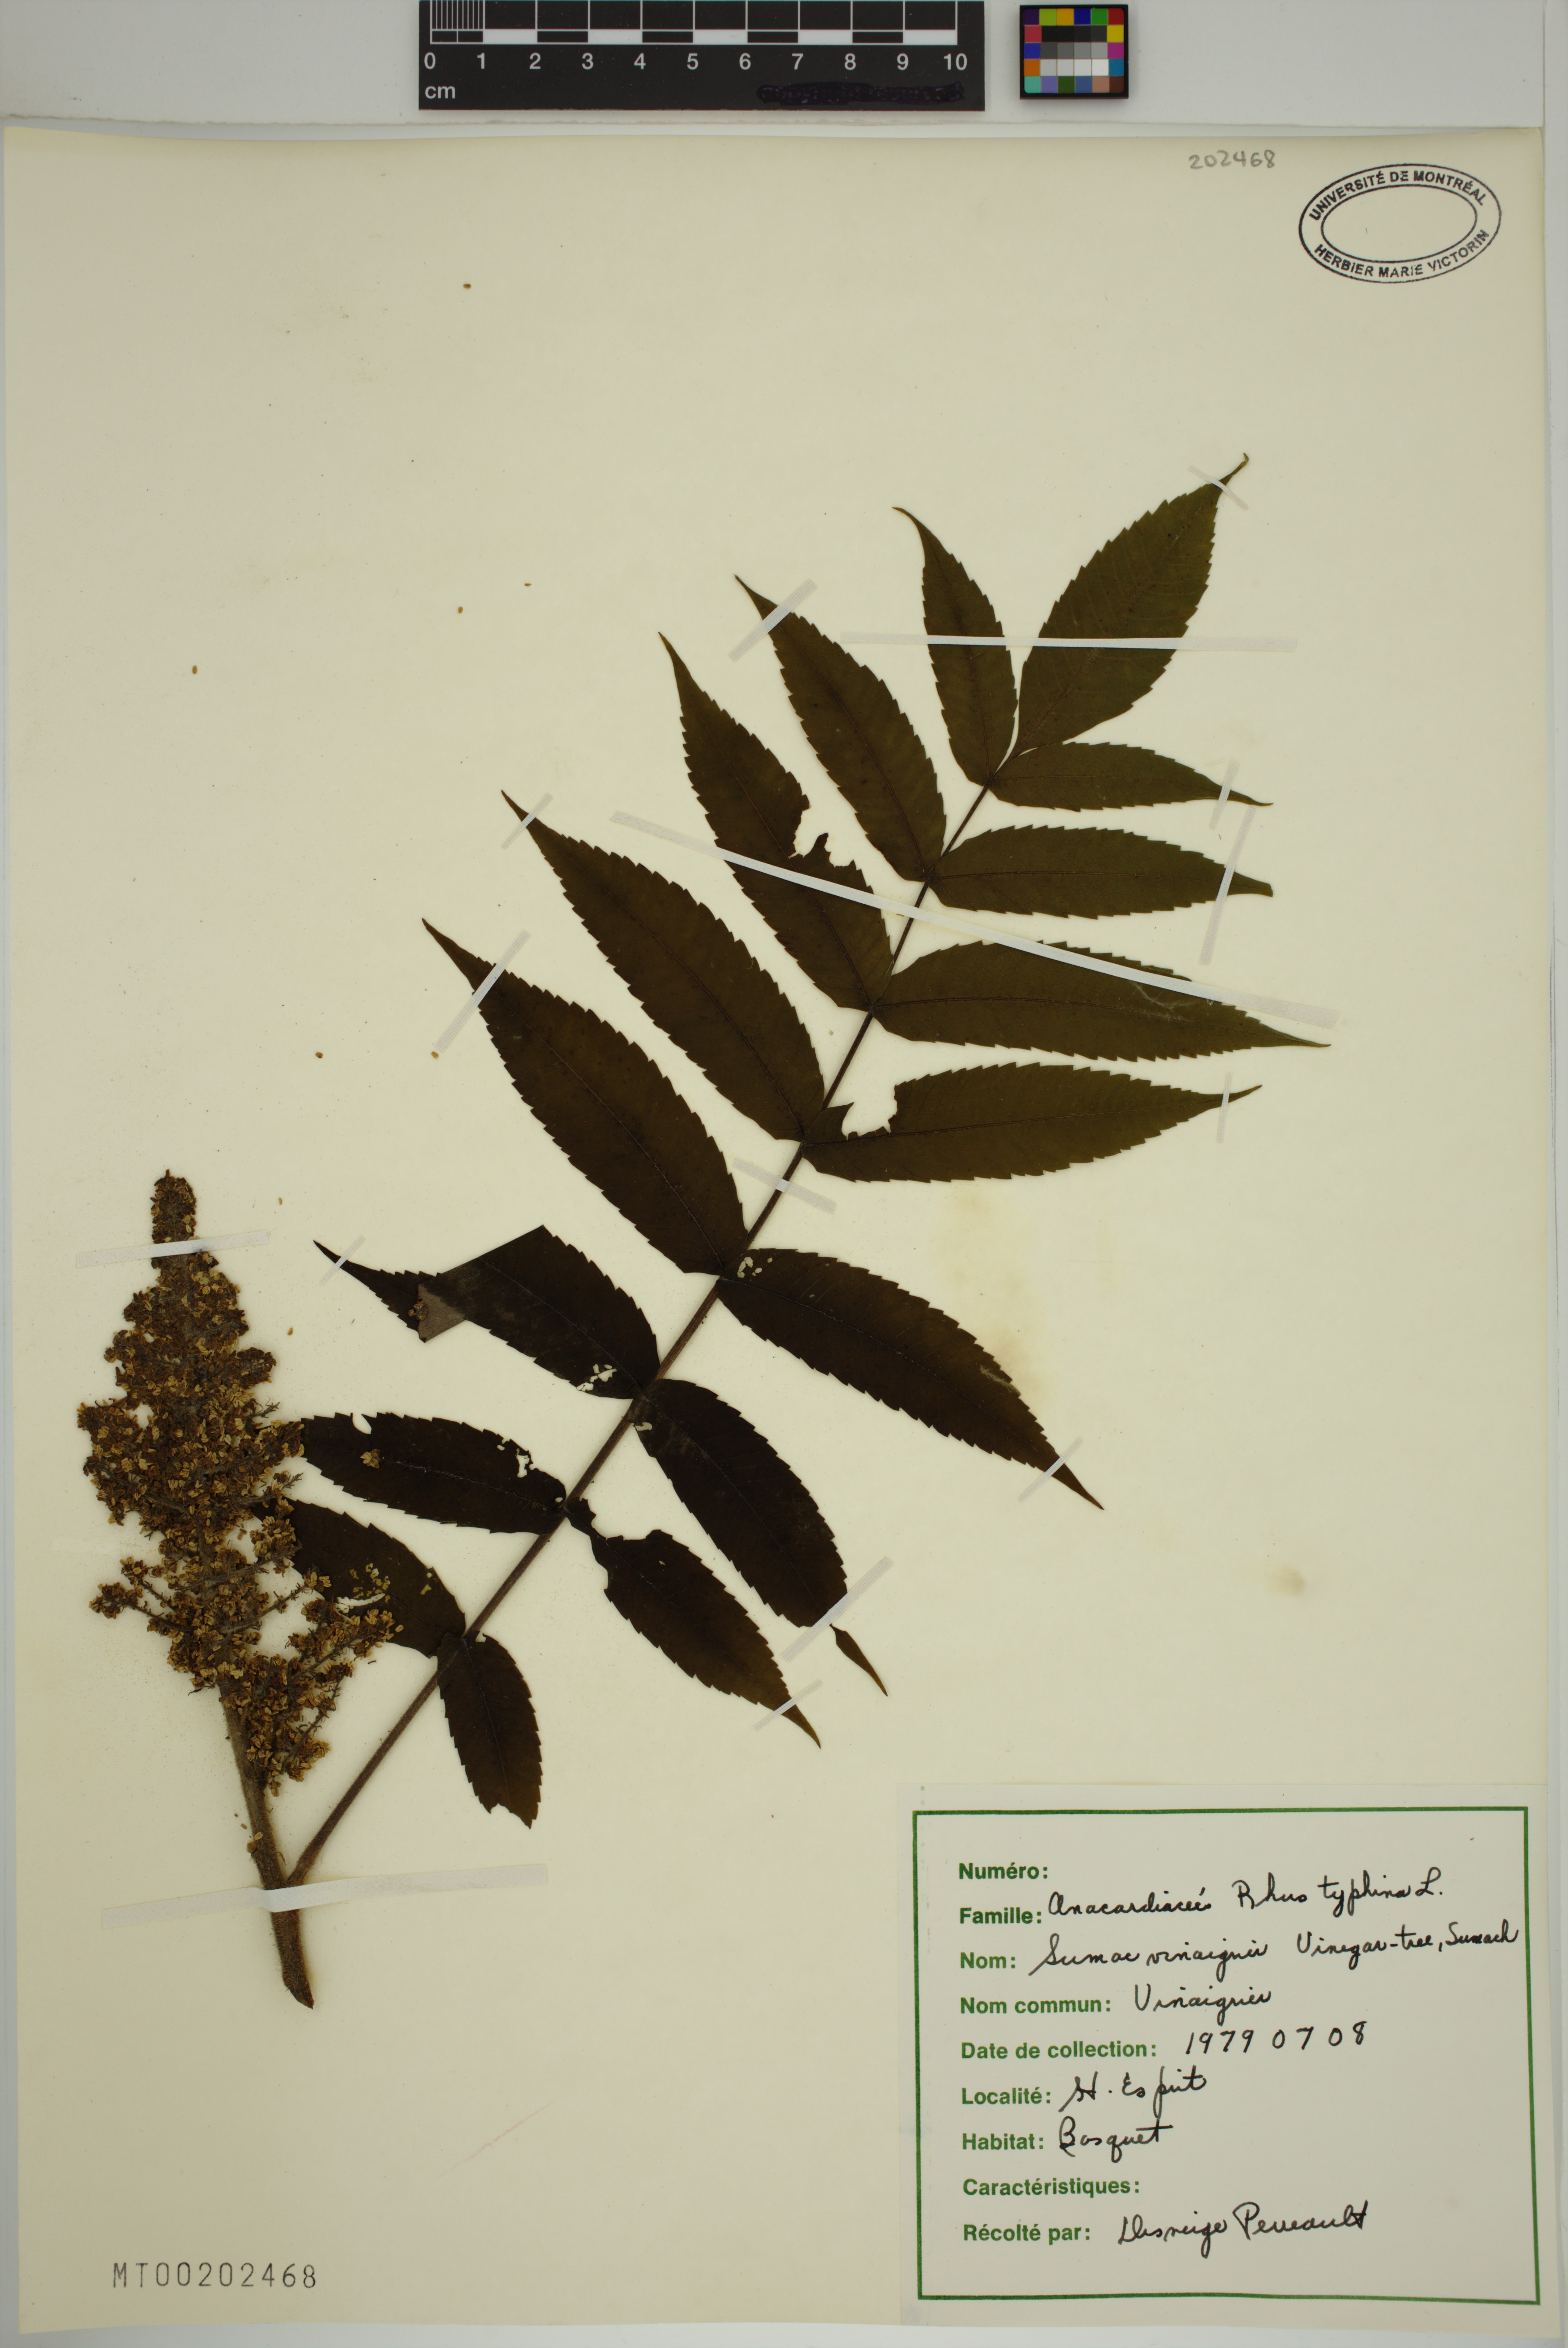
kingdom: Plantae
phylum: Tracheophyta
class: Magnoliopsida
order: Sapindales
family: Anacardiaceae
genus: Rhus
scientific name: Rhus typhina
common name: Staghorn sumac
